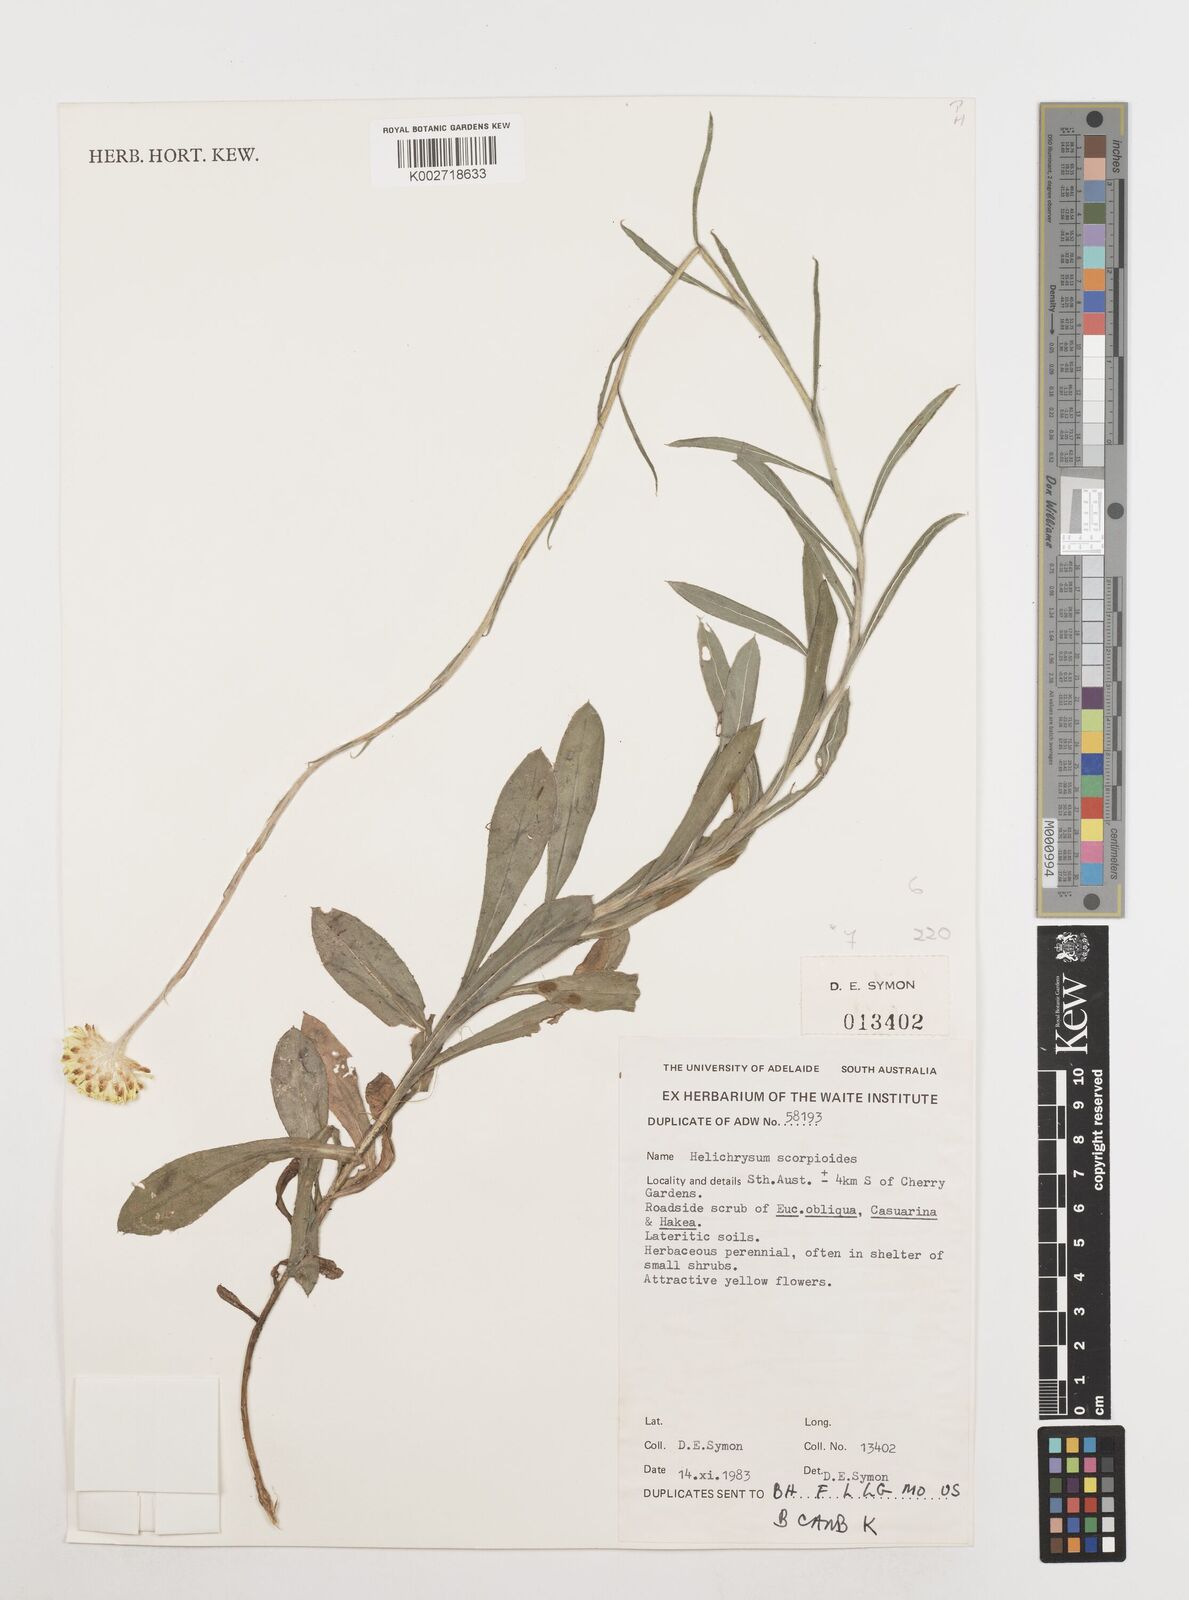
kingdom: Plantae
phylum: Tracheophyta
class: Magnoliopsida
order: Asterales
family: Asteraceae
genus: Coronidium
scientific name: Coronidium scorpioides
